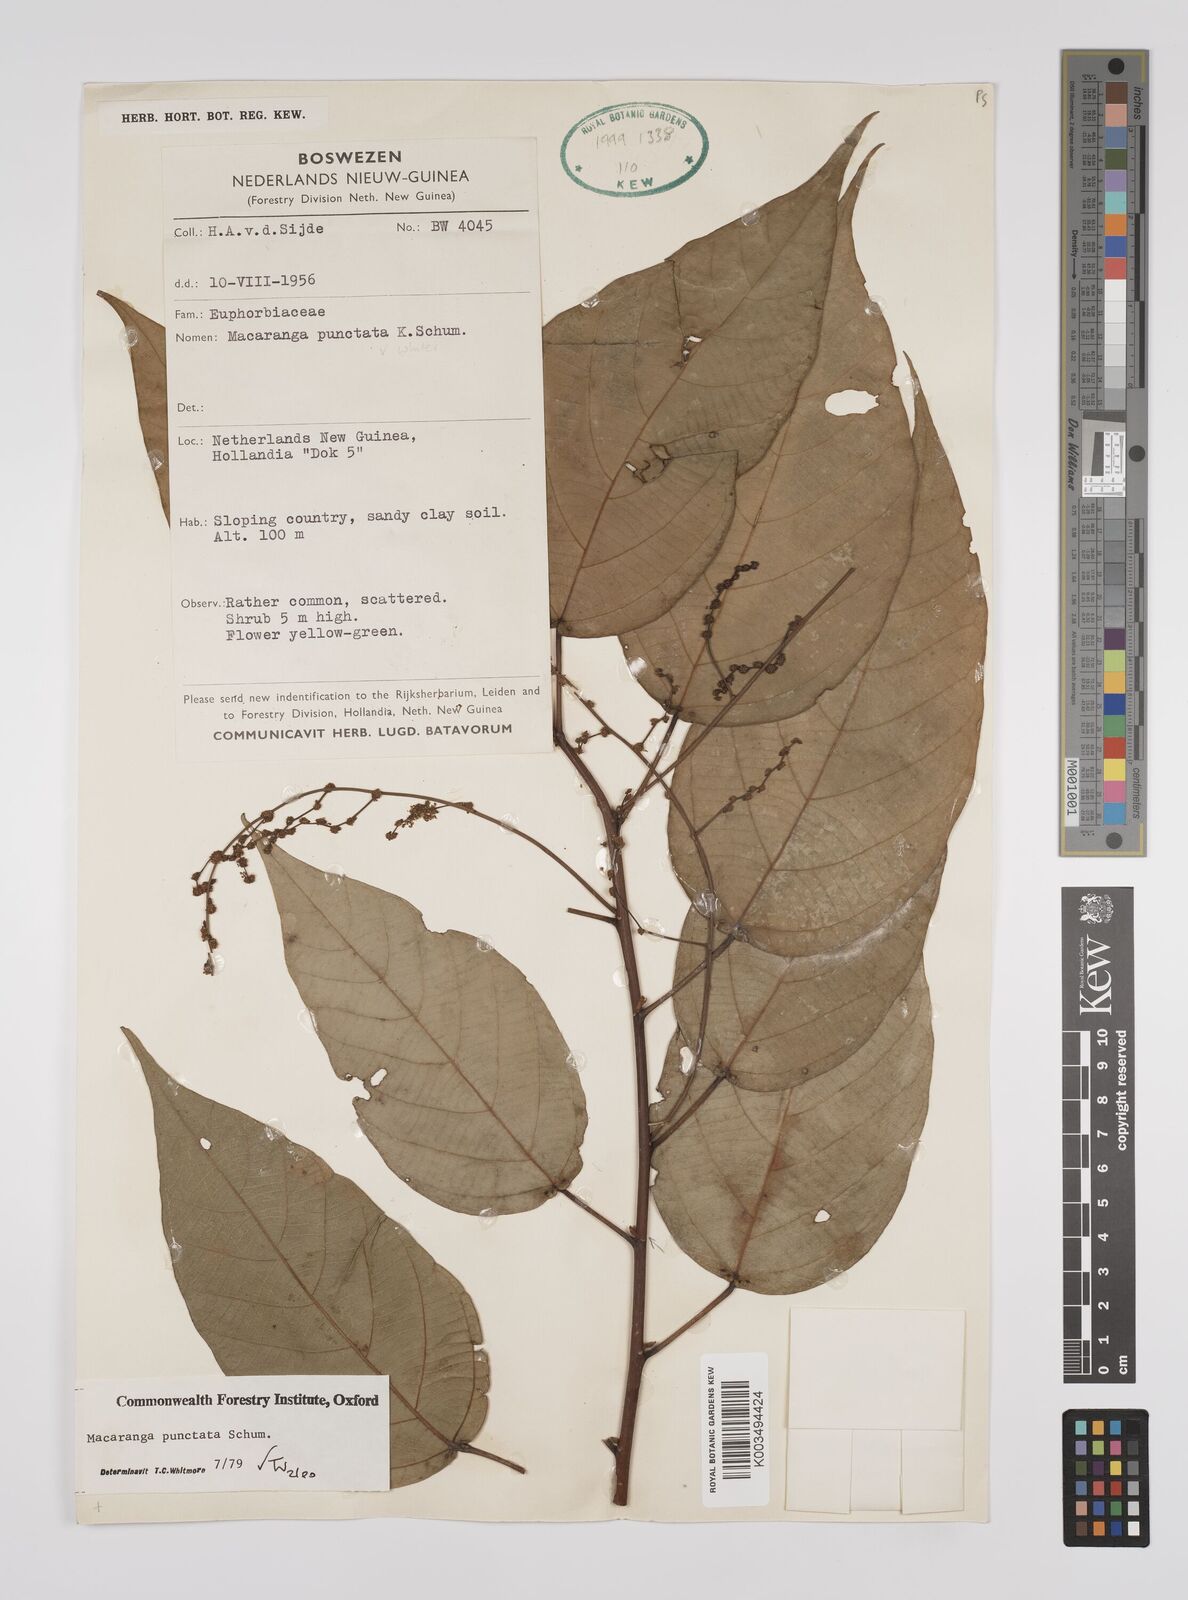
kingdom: Plantae
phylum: Tracheophyta
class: Magnoliopsida
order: Malpighiales
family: Euphorbiaceae
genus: Macaranga
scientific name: Macaranga punctata
